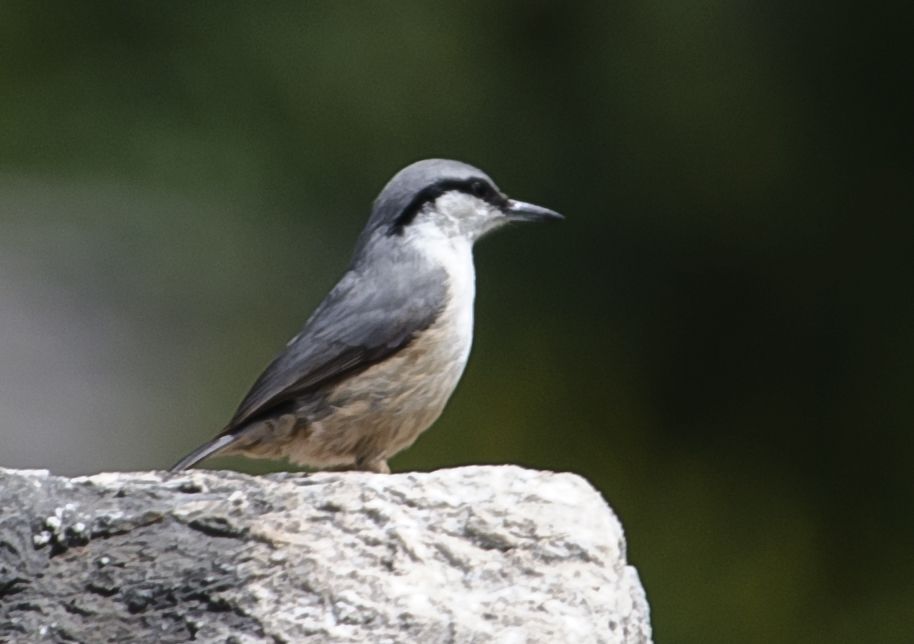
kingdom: Animalia
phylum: Chordata
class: Aves
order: Passeriformes
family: Sittidae
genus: Sitta
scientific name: Sitta neumayer
